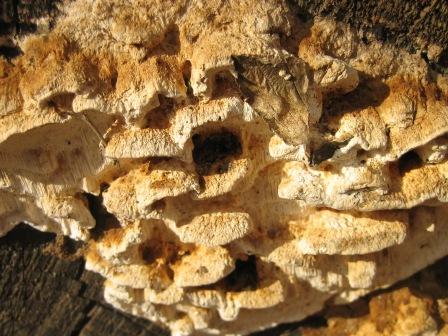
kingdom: Fungi
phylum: Basidiomycota
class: Agaricomycetes
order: Polyporales
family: Fomitopsidaceae
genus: Neoantrodia
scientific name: Neoantrodia serialis
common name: række-sejporesvamp
